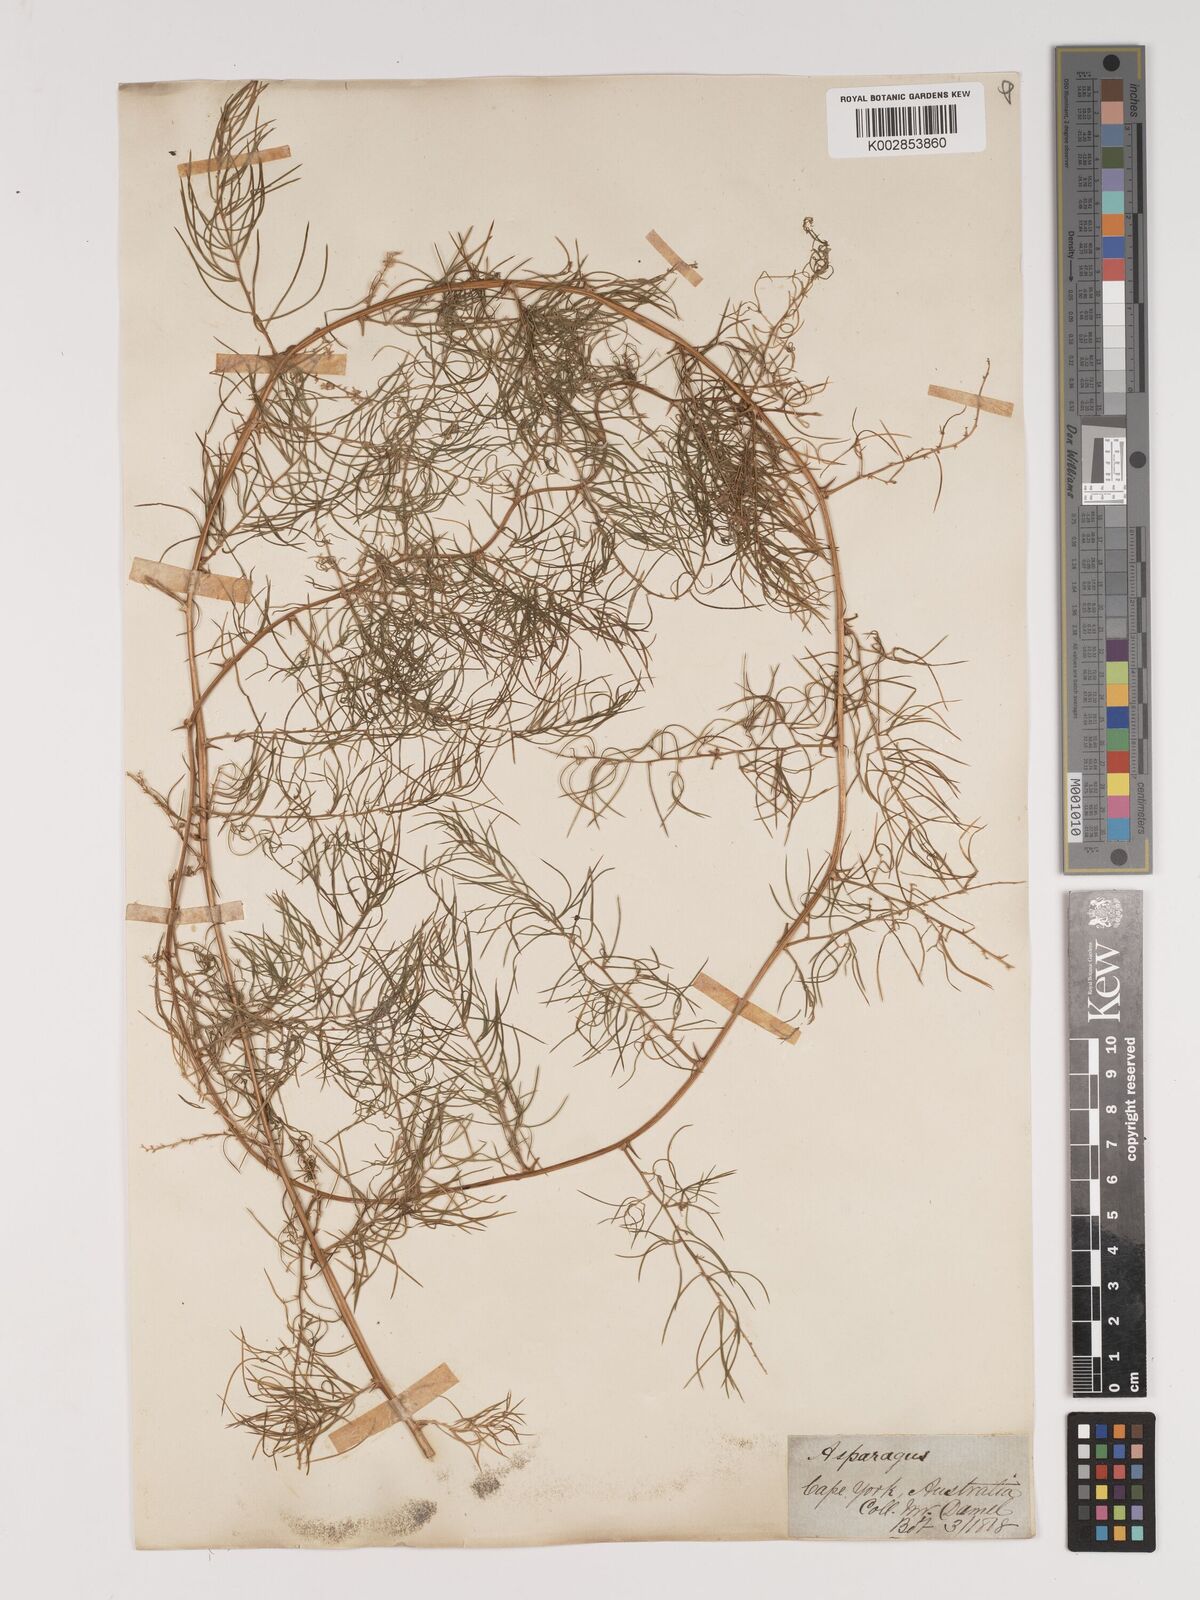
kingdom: Plantae
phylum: Tracheophyta
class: Liliopsida
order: Asparagales
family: Asparagaceae
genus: Asparagus
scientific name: Asparagus racemosus
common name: Asparagus-fern
